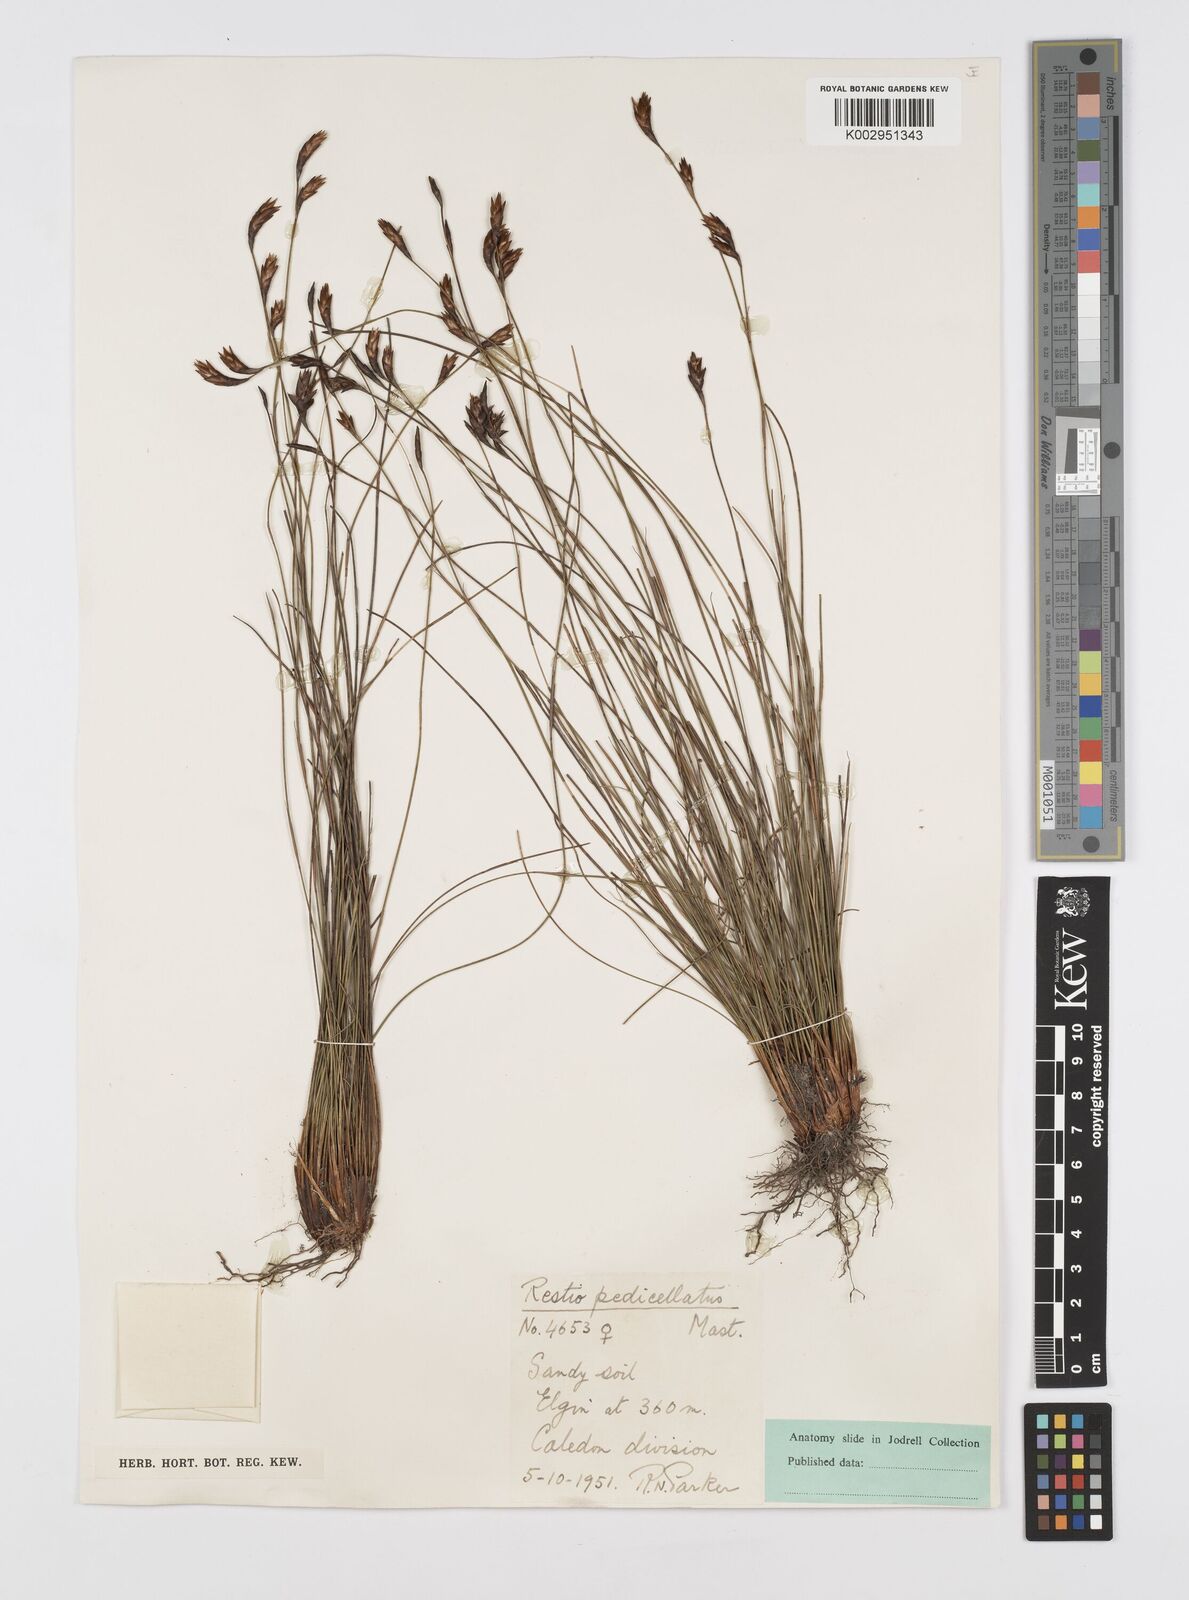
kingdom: Plantae
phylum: Tracheophyta
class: Liliopsida
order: Poales
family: Restionaceae
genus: Restio
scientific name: Restio pedicellatus
